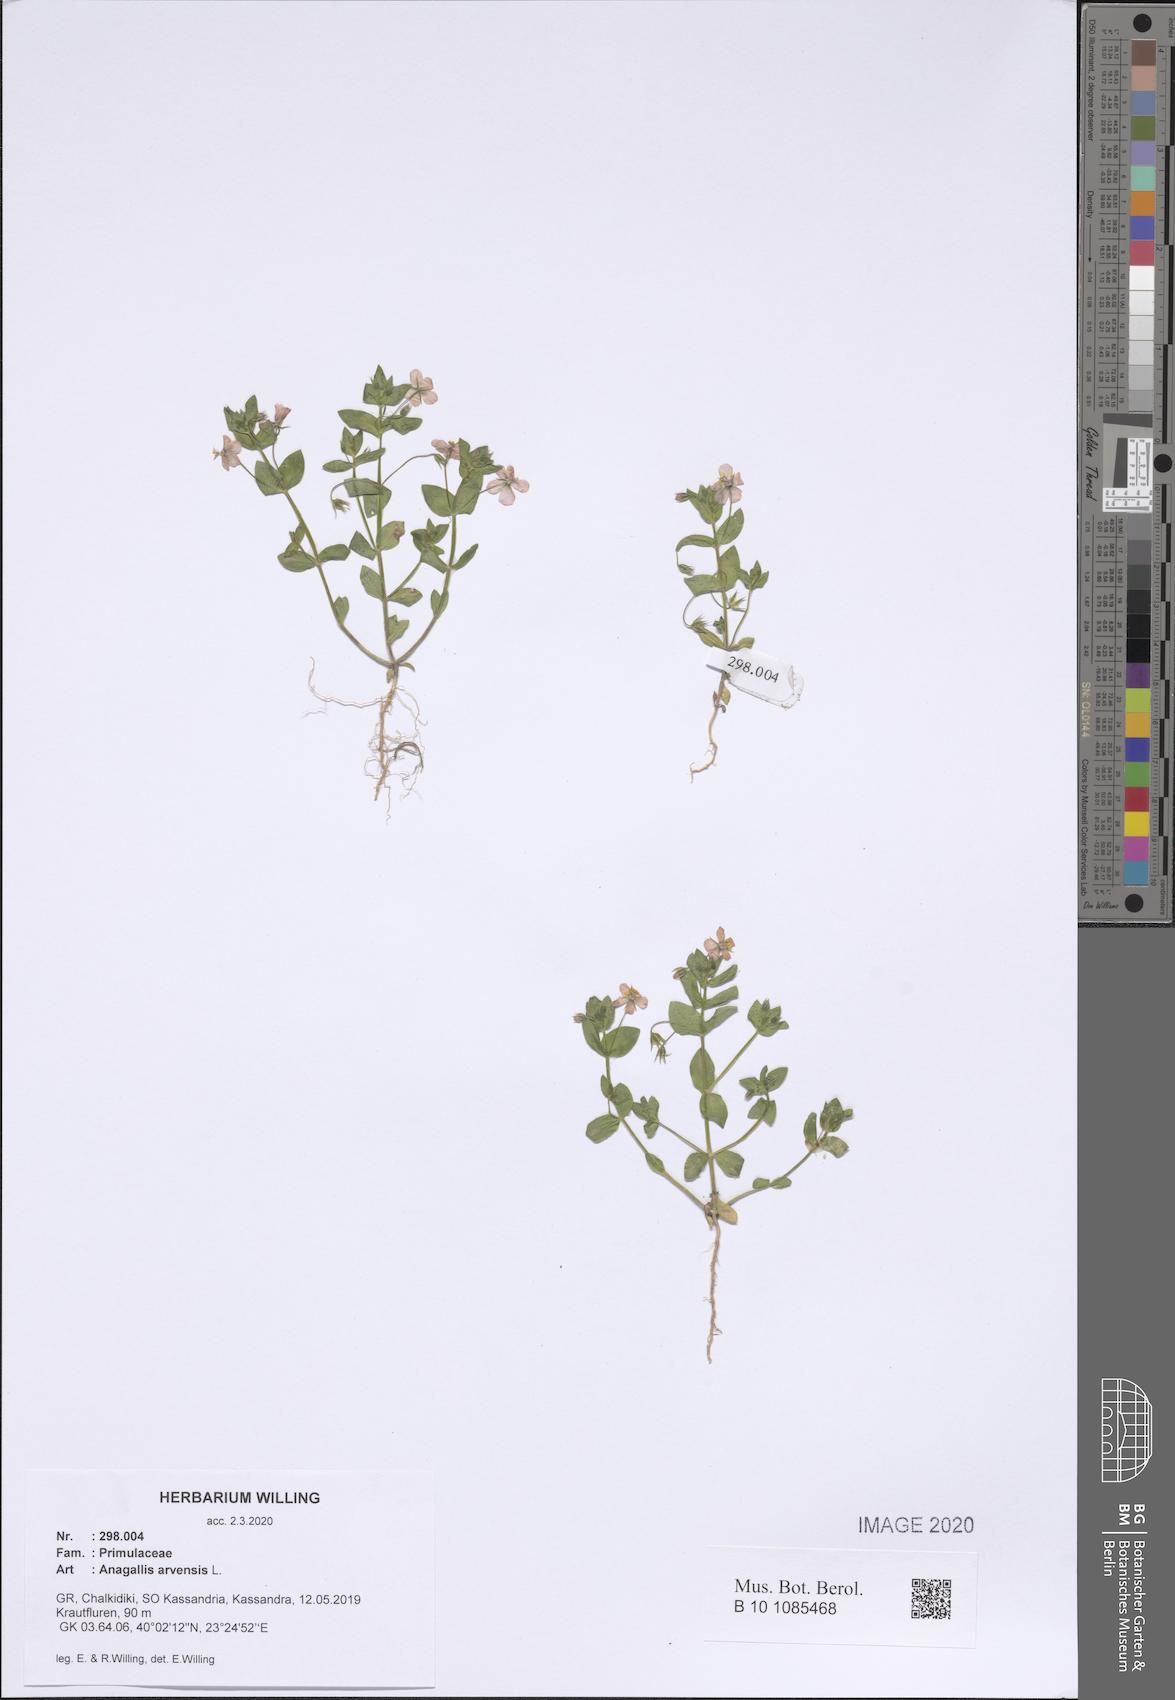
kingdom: Plantae
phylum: Tracheophyta
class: Magnoliopsida
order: Ericales
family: Primulaceae
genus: Lysimachia
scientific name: Lysimachia arvensis
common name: Scarlet pimpernel
